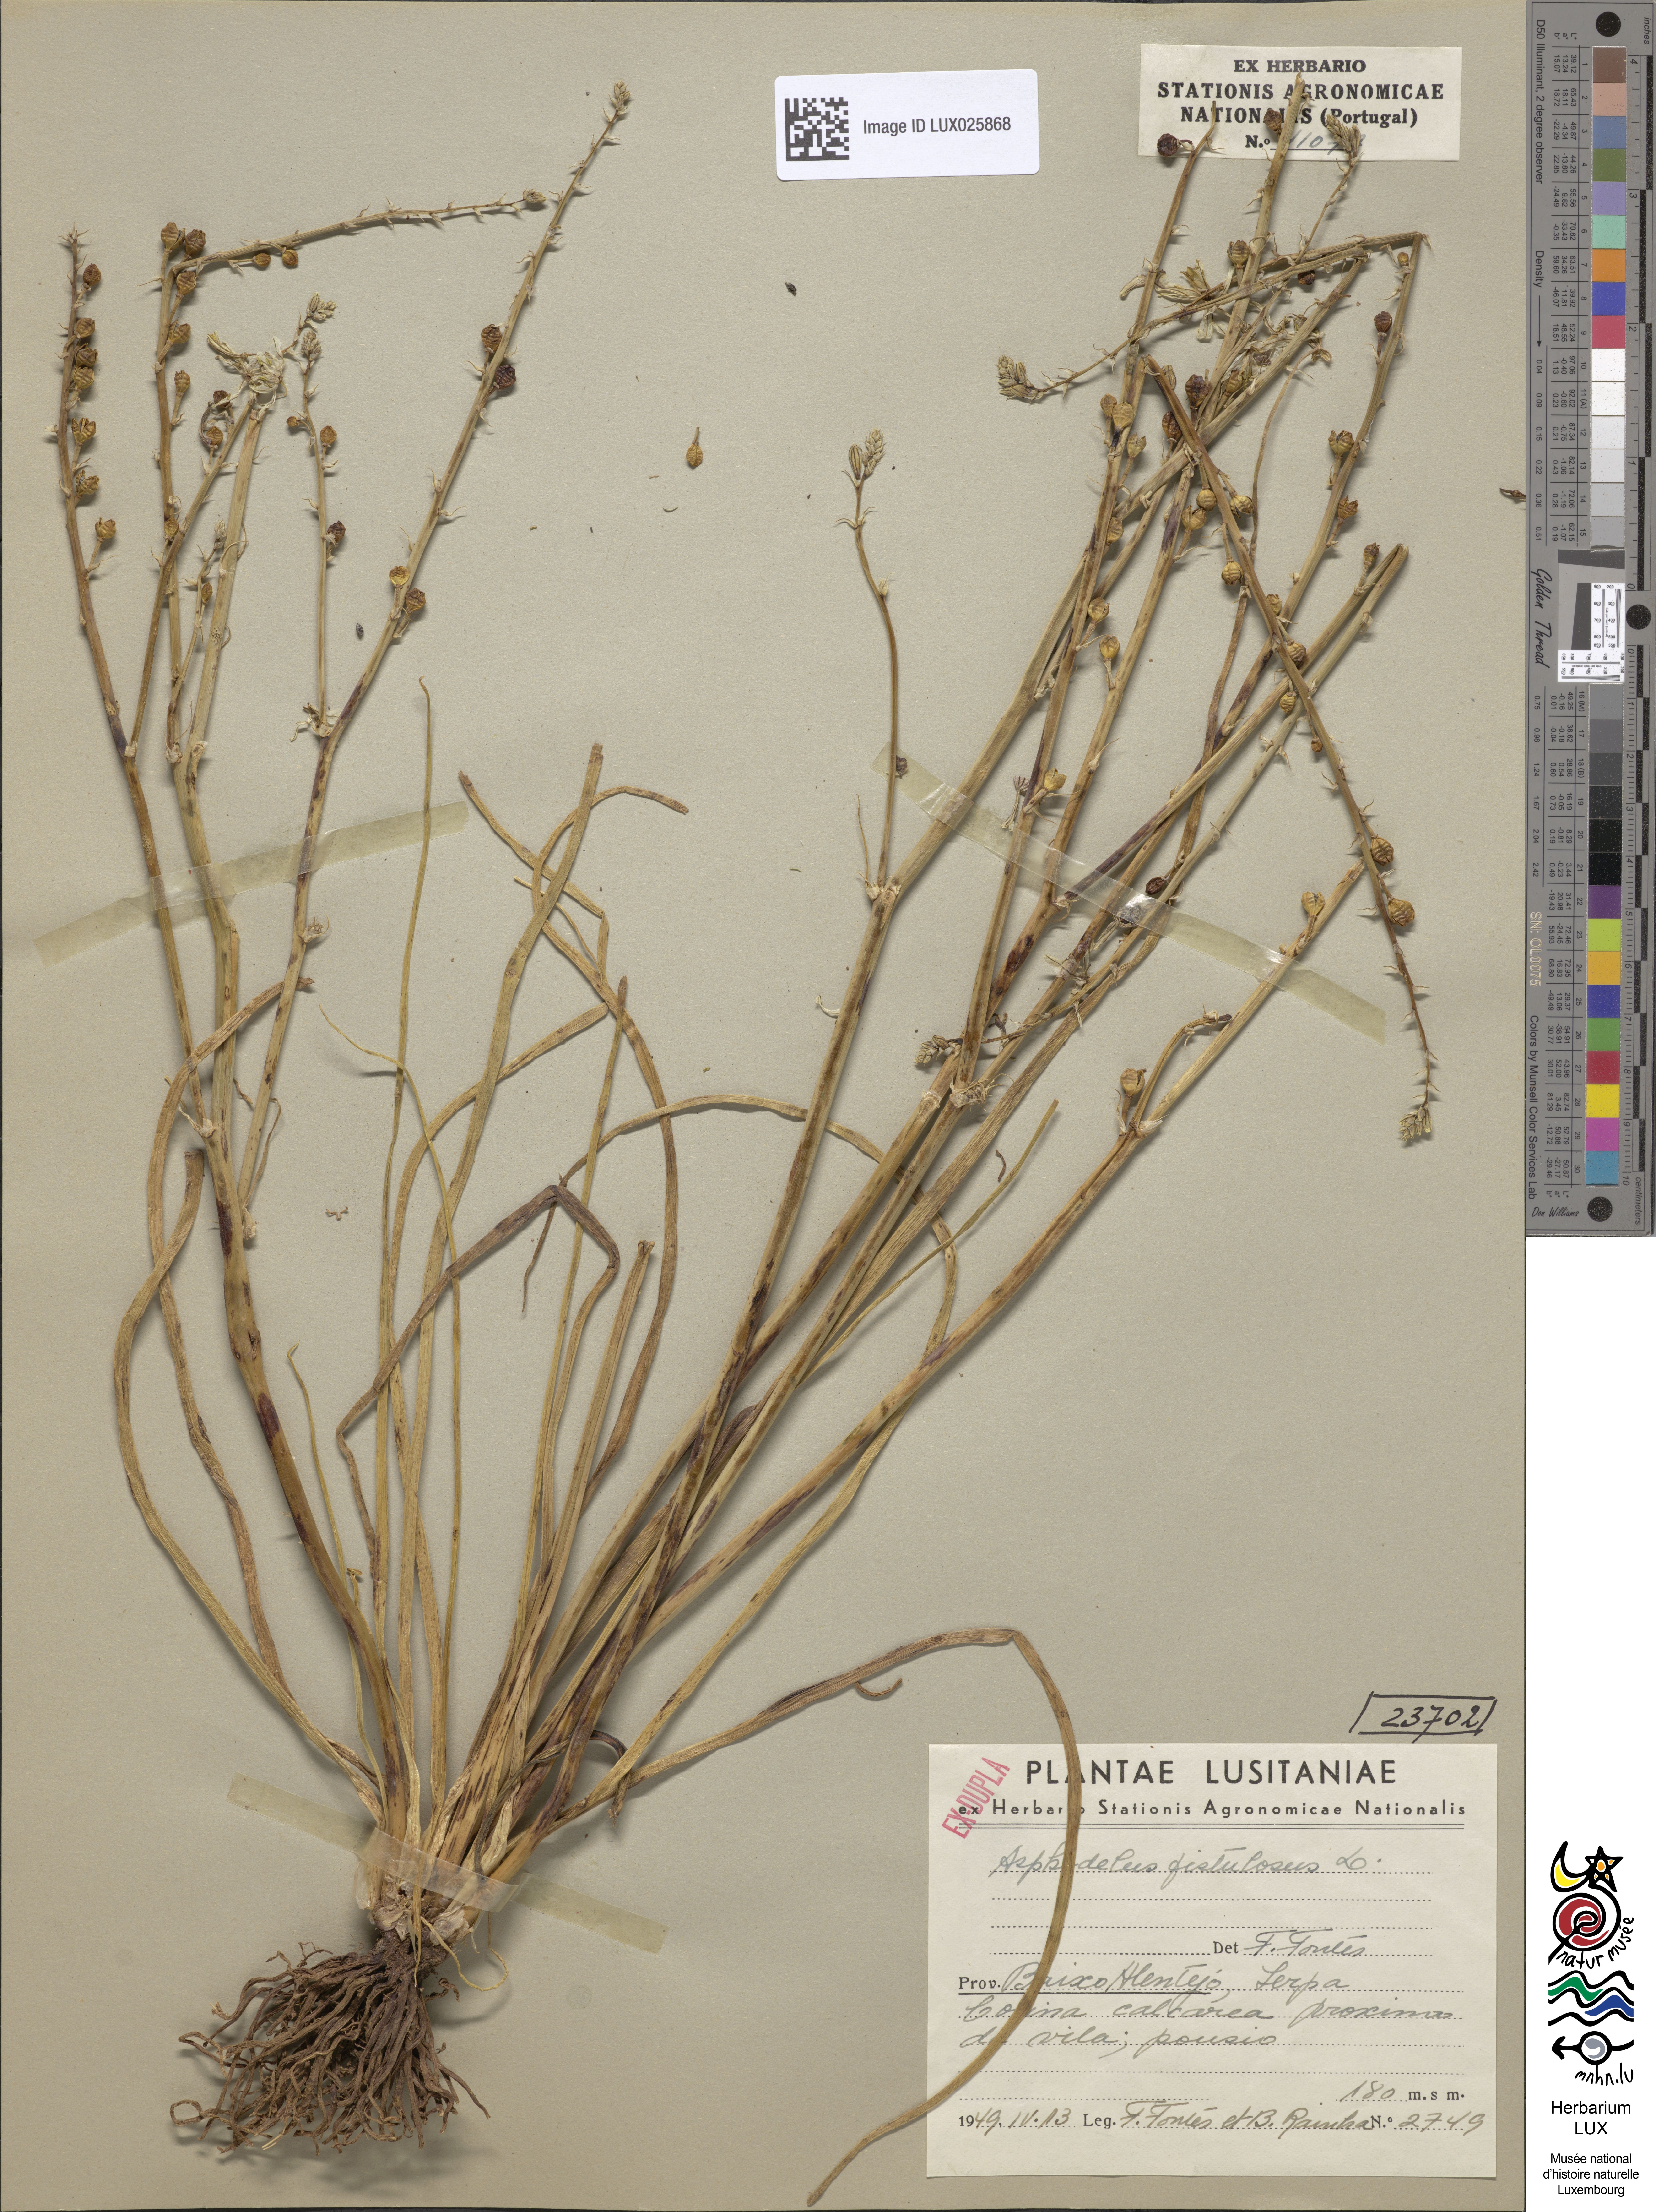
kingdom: Plantae
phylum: Tracheophyta
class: Liliopsida
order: Asparagales
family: Asphodelaceae
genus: Asphodelus
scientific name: Asphodelus fistulosus
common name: Onionweed
